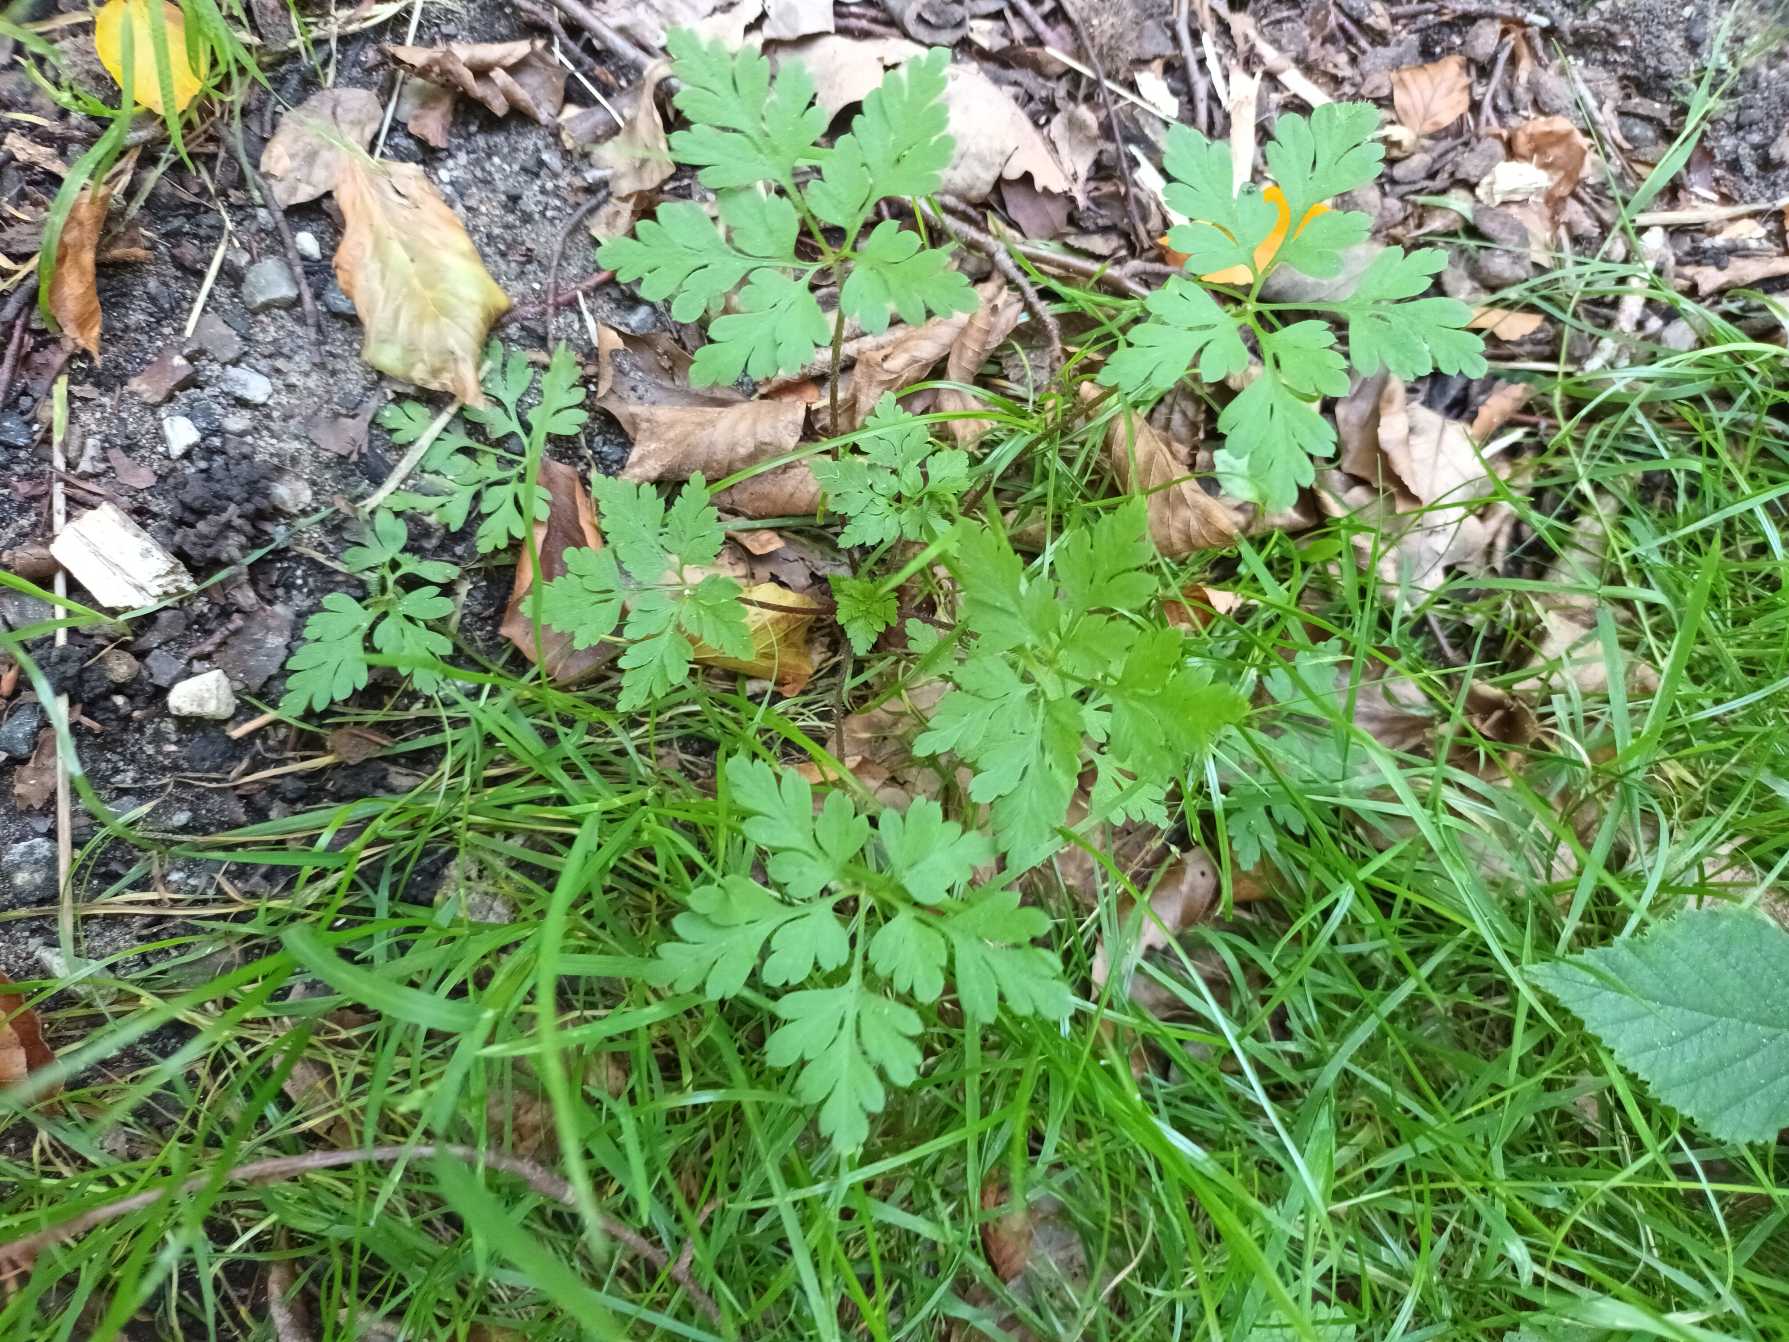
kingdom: Plantae
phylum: Tracheophyta
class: Magnoliopsida
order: Geraniales
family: Geraniaceae
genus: Geranium
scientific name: Geranium robertianum
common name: Stinkende storkenæb
